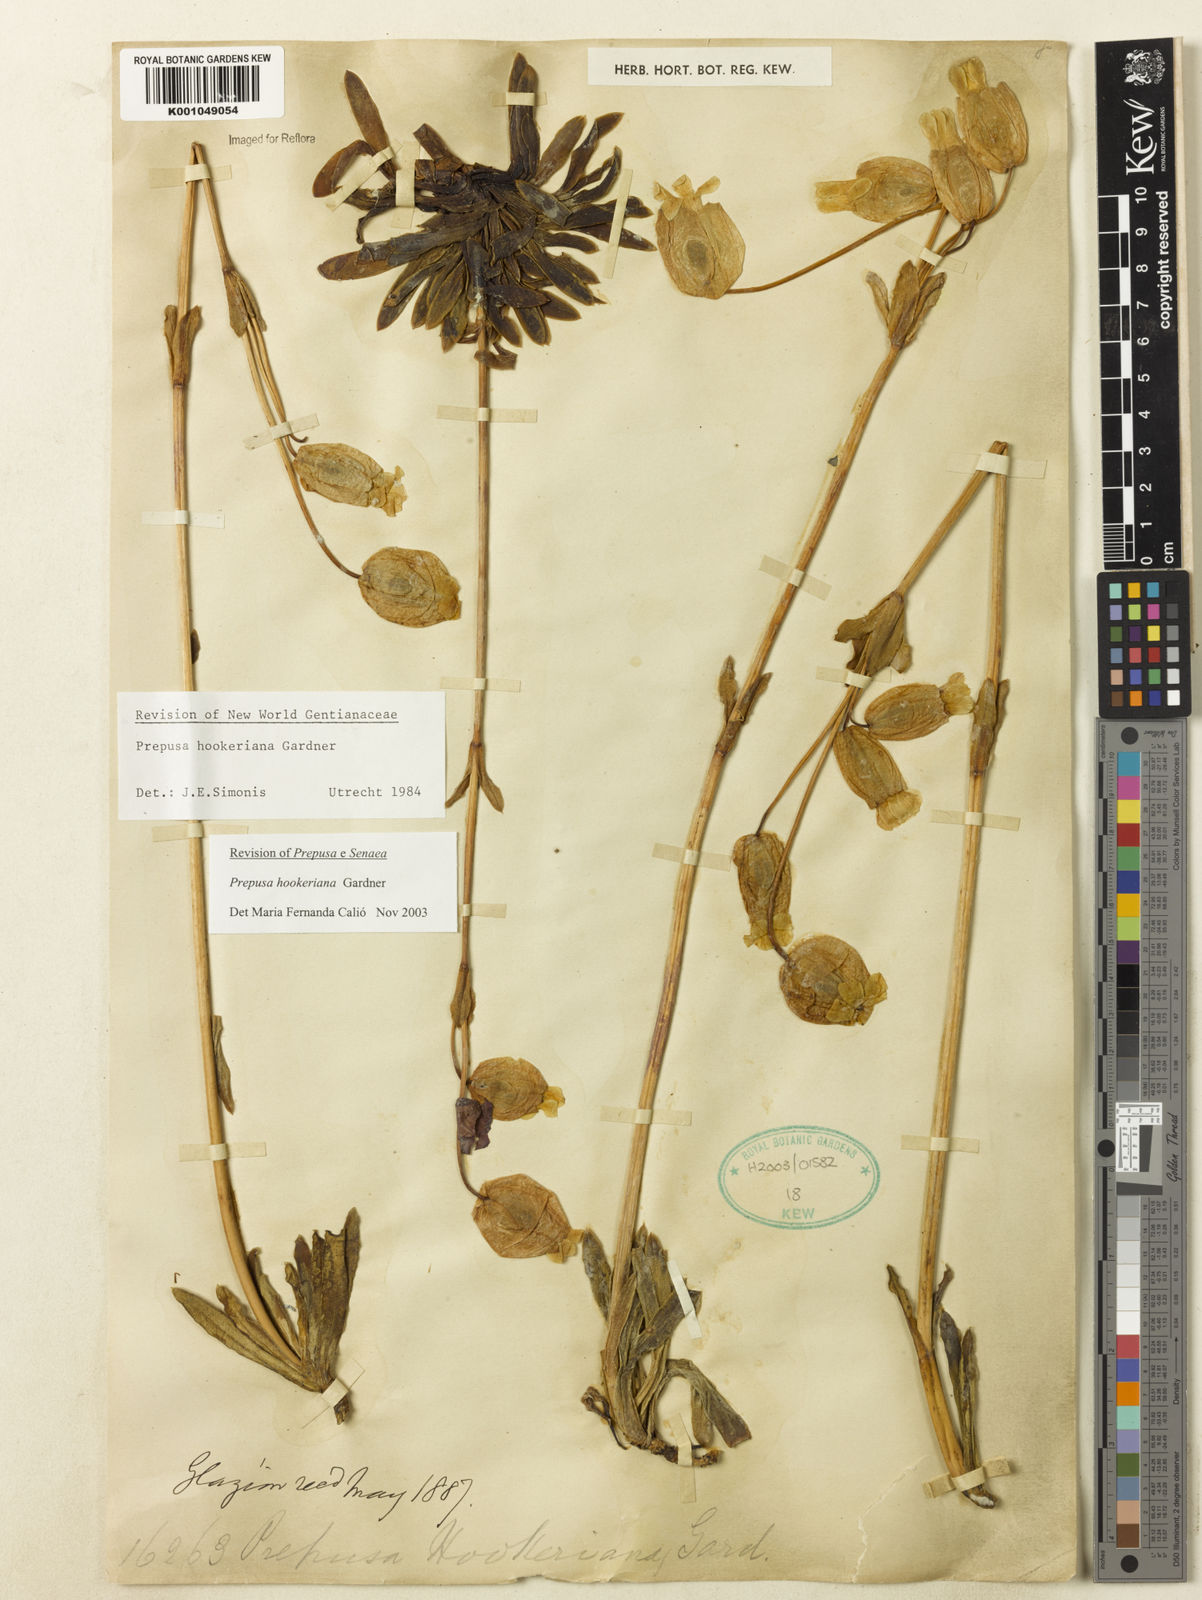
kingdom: Plantae
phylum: Tracheophyta
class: Magnoliopsida
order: Gentianales
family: Gentianaceae
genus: Prepusa
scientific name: Prepusa hookeriana
